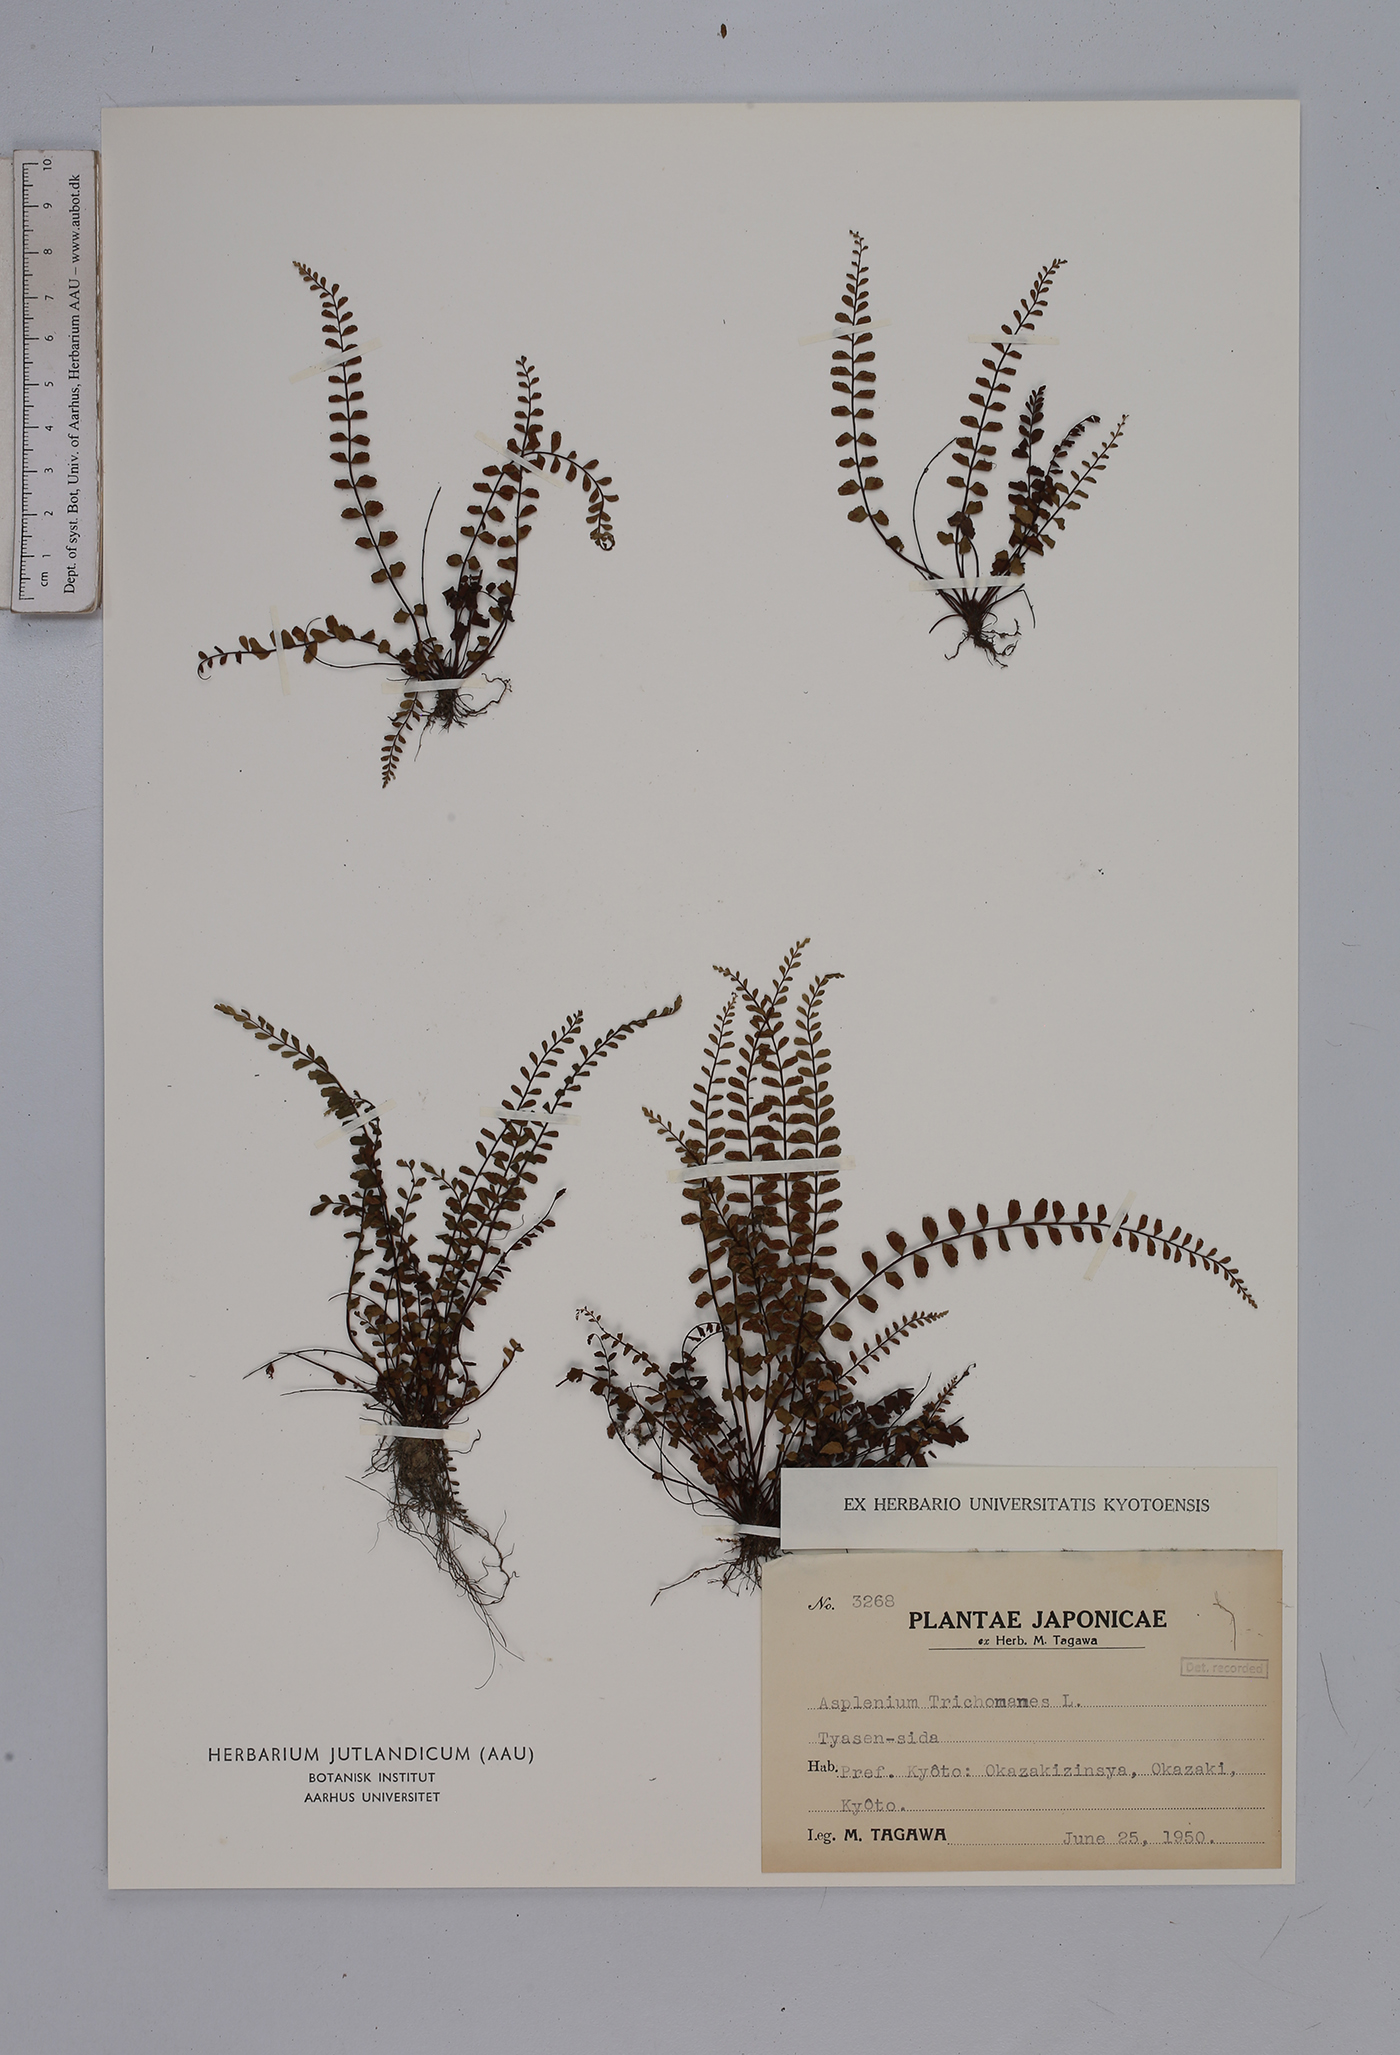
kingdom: Plantae
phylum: Tracheophyta
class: Polypodiopsida
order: Polypodiales
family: Aspleniaceae
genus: Asplenium
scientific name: Asplenium trichomanes
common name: Maidenhair spleenwort
